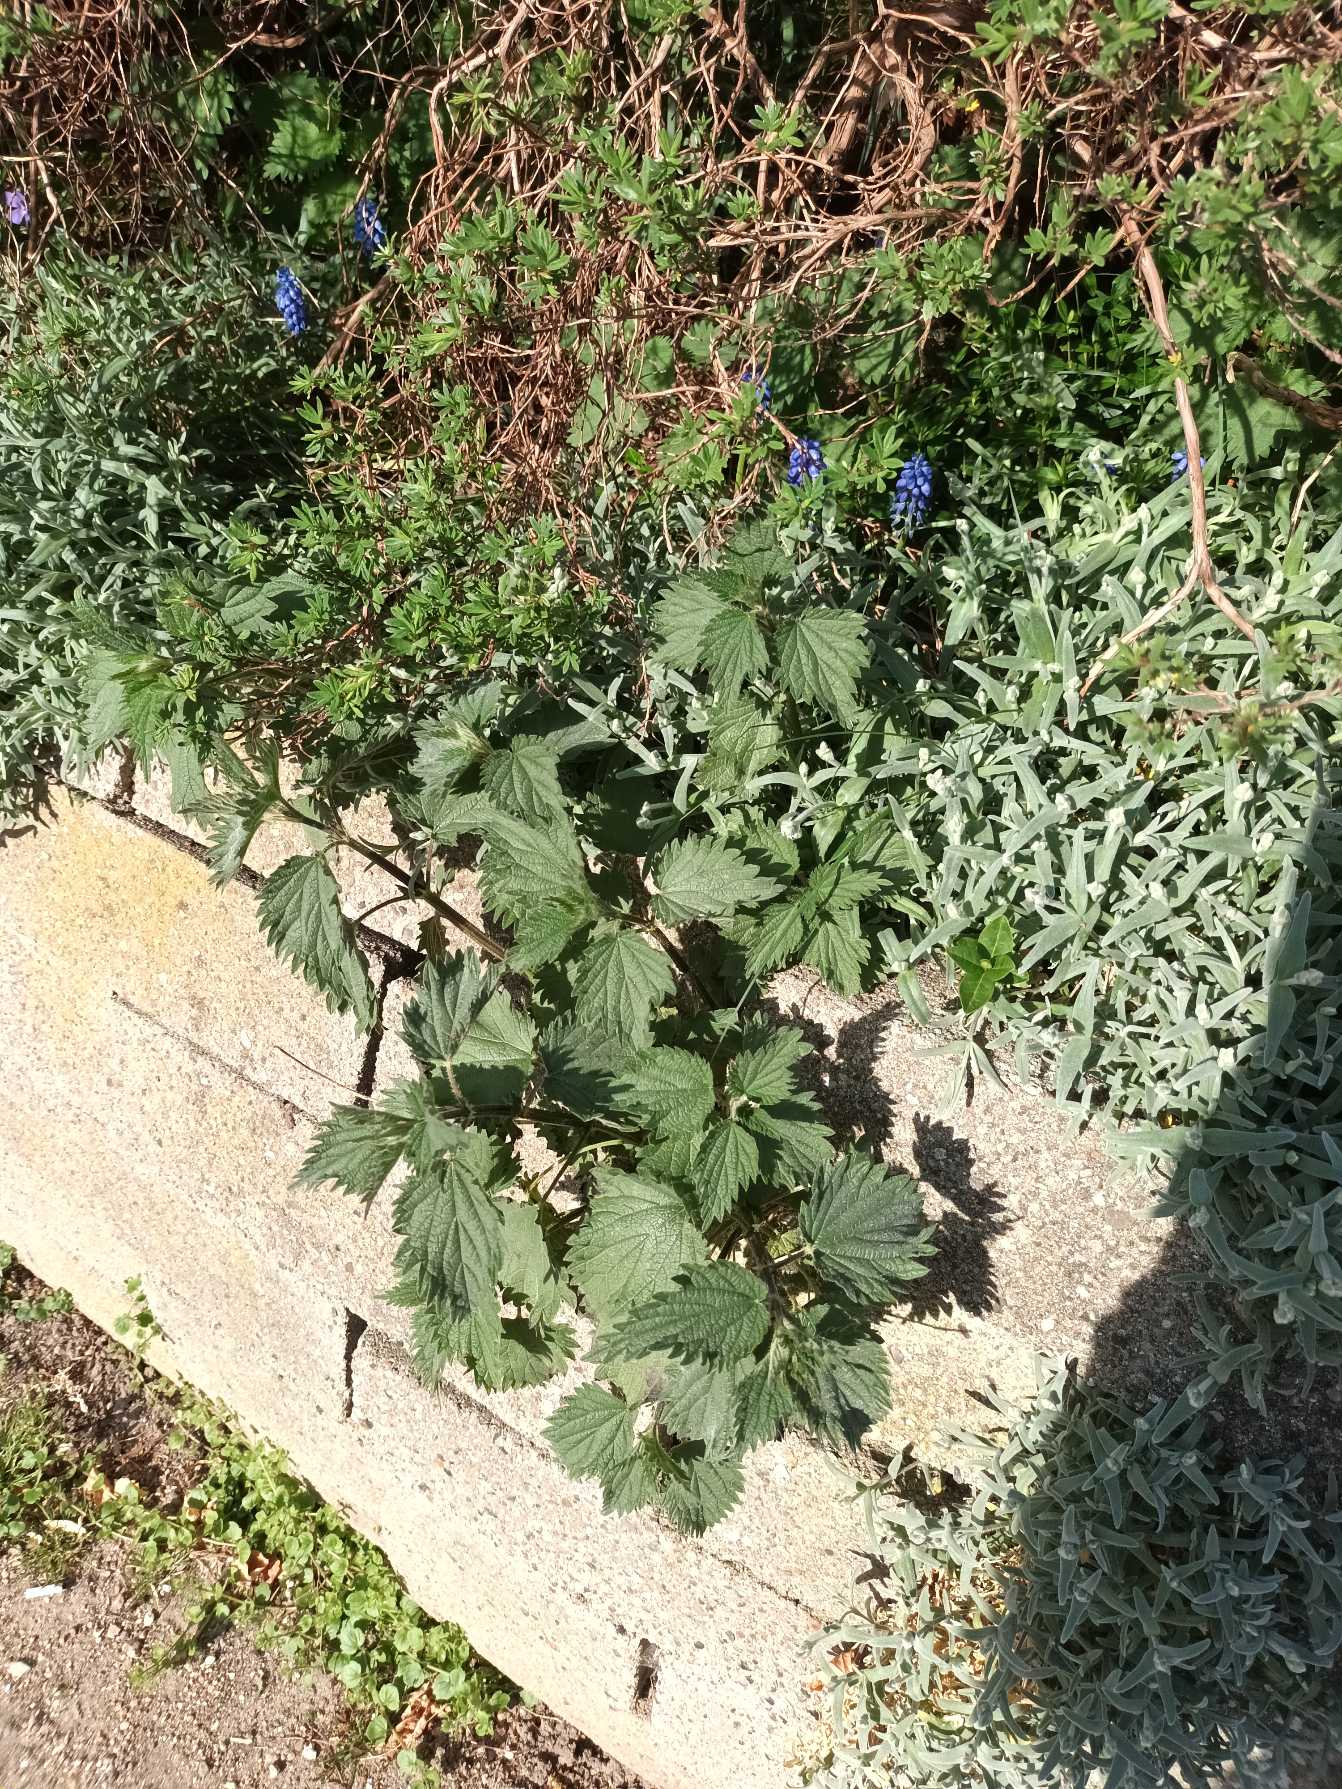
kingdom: Plantae
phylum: Tracheophyta
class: Magnoliopsida
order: Rosales
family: Urticaceae
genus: Urtica
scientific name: Urtica dioica
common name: Stor nælde
